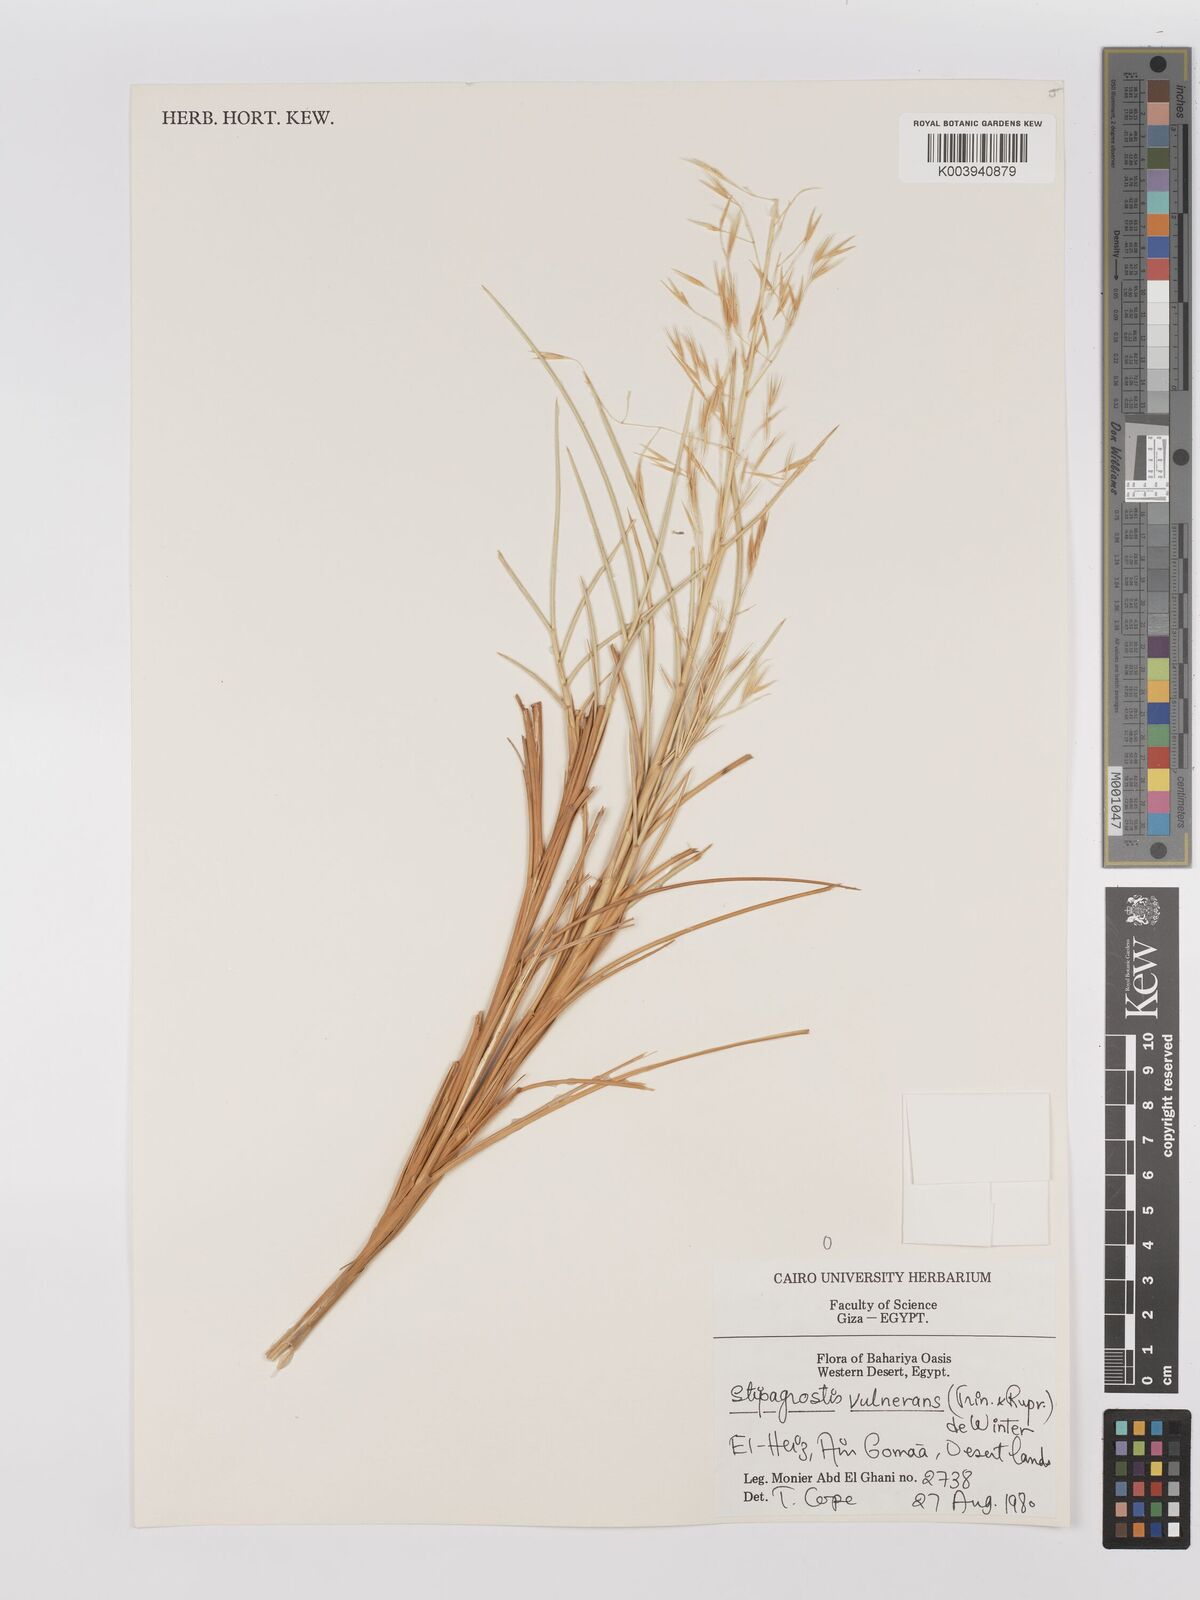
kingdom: Plantae
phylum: Tracheophyta
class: Liliopsida
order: Poales
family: Poaceae
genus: Stipagrostis
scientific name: Stipagrostis vulnerans
